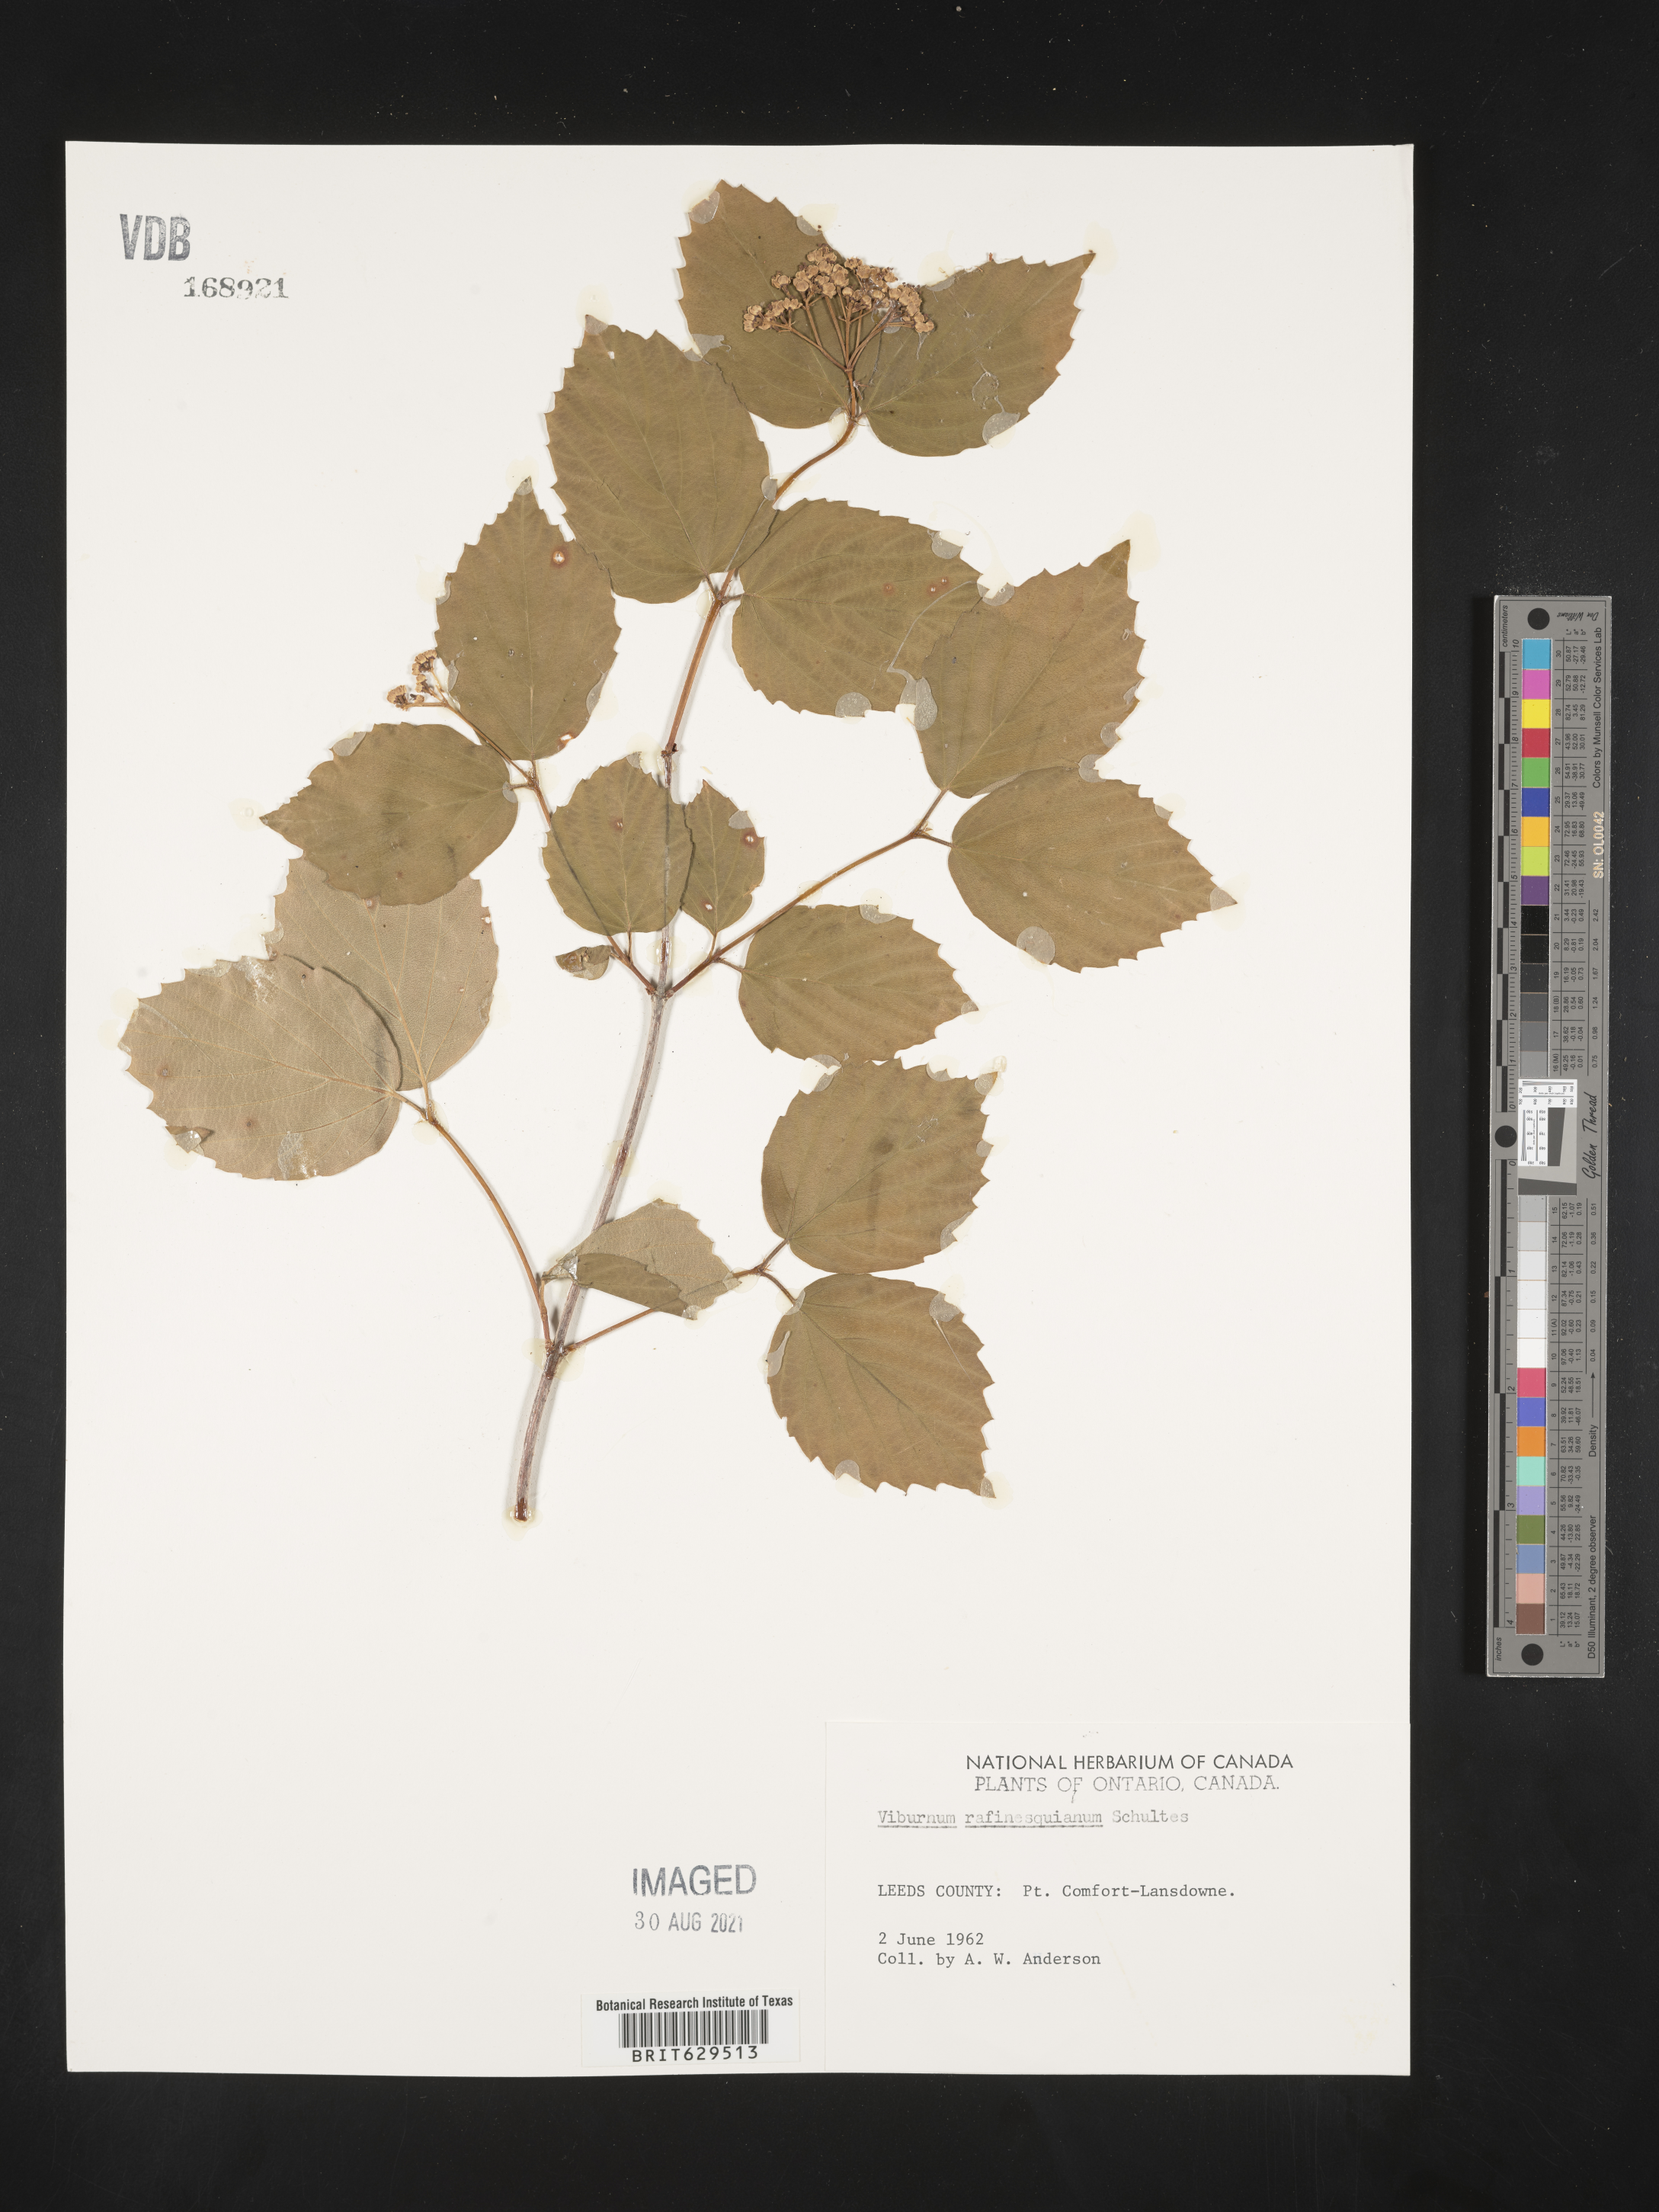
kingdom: Plantae
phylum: Tracheophyta
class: Magnoliopsida
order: Dipsacales
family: Viburnaceae
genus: Viburnum
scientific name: Viburnum rafinesqueanum
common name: Downy arrow-wood
